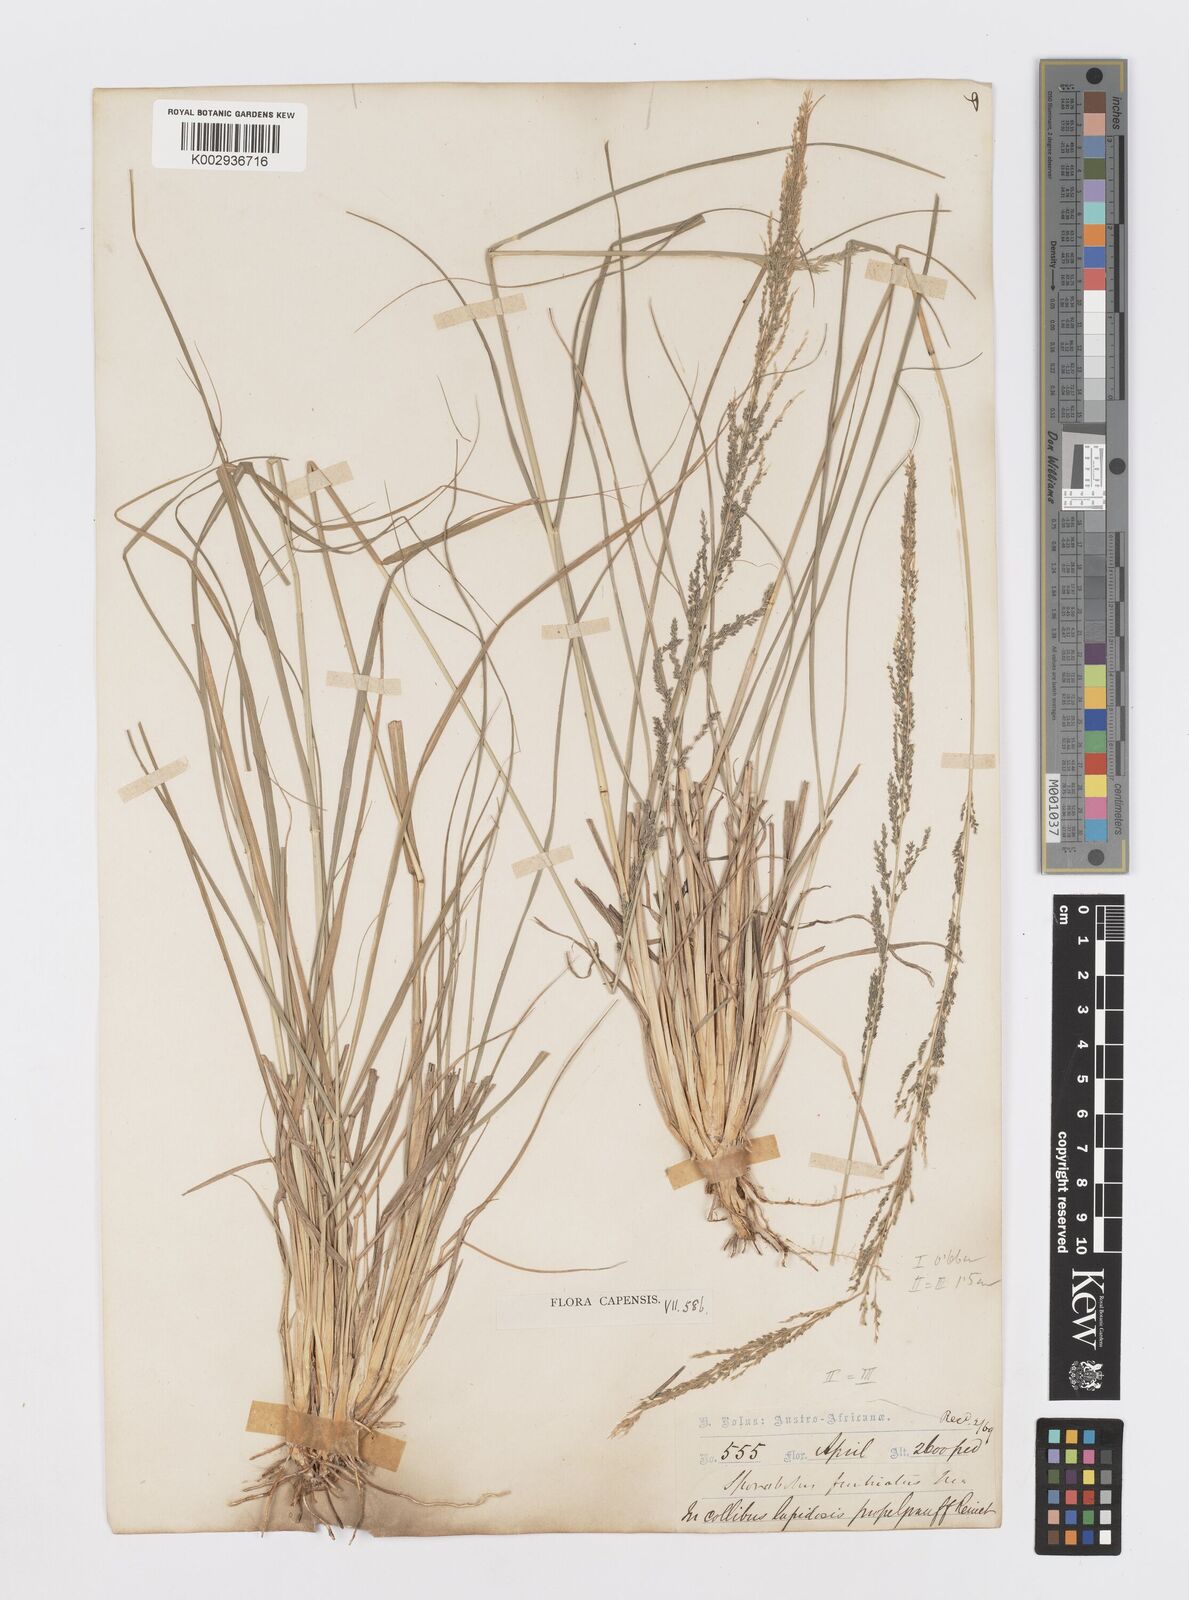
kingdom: Plantae
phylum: Tracheophyta
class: Liliopsida
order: Poales
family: Poaceae
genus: Sporobolus
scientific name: Sporobolus fimbriatus
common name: Fringed dropseed
